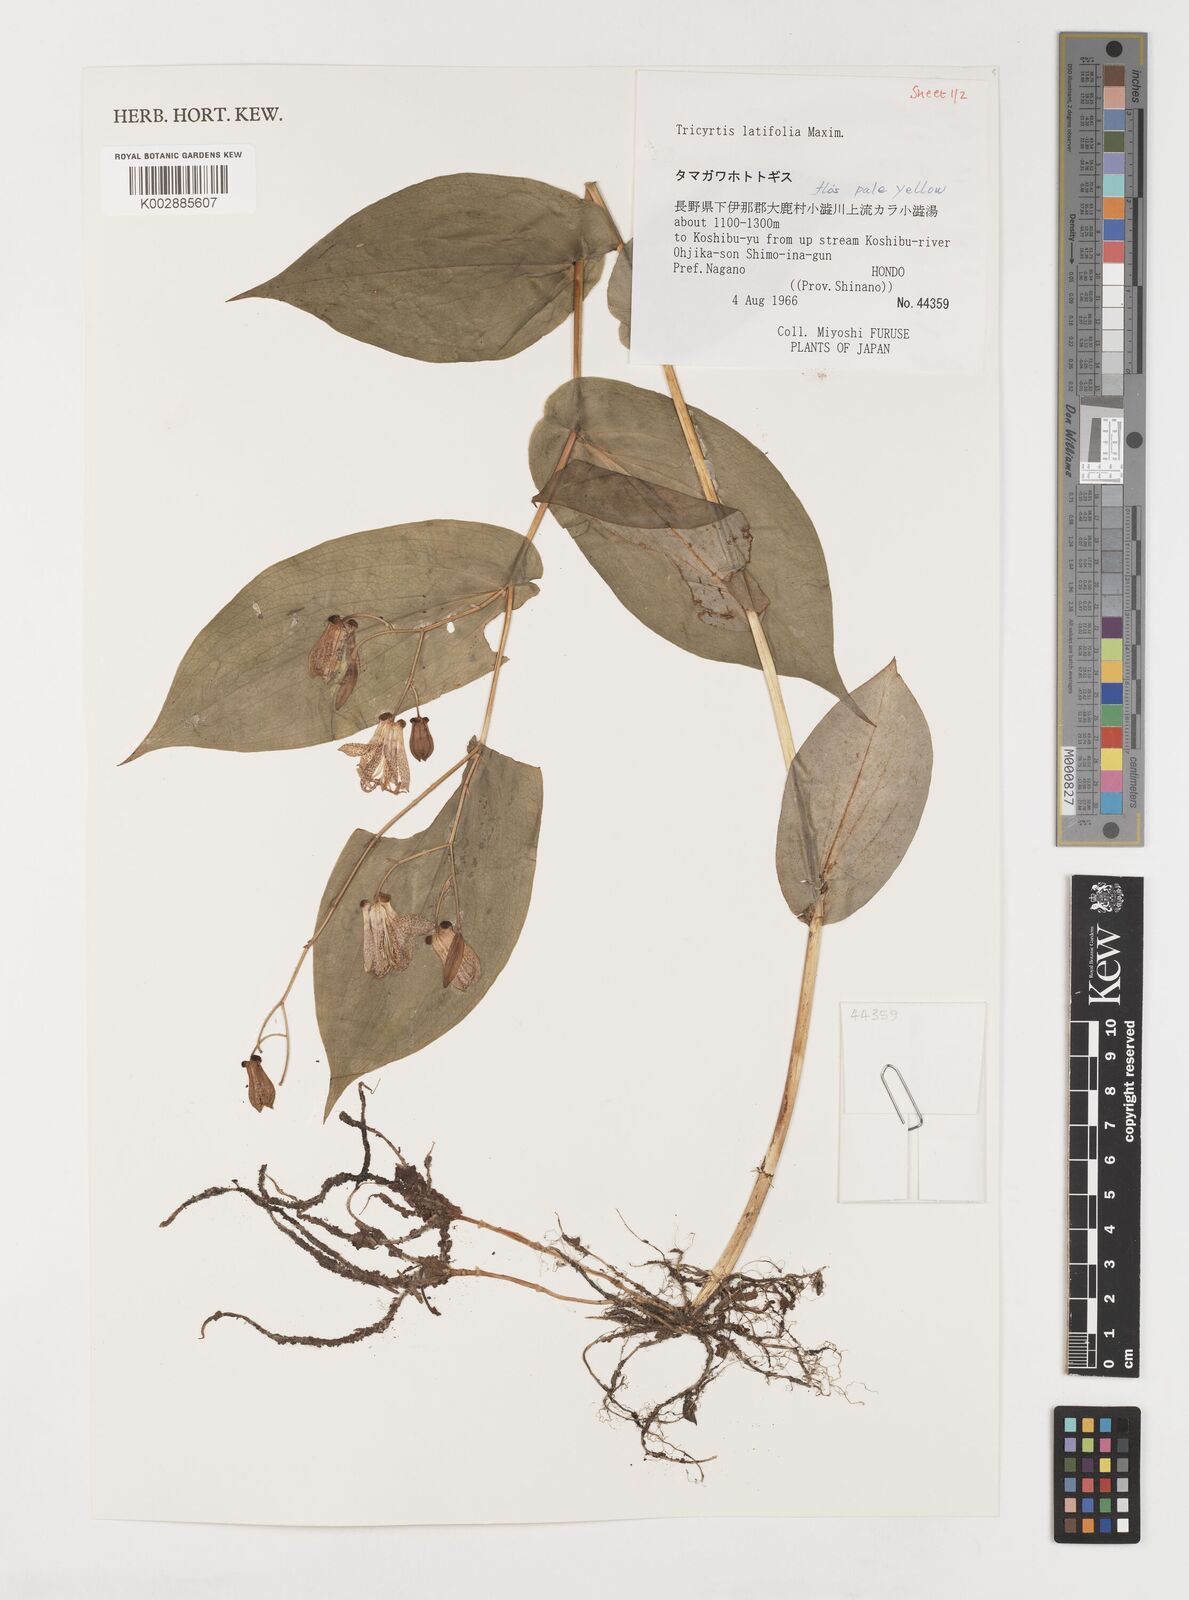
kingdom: Plantae
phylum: Tracheophyta
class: Liliopsida
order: Liliales
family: Liliaceae
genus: Tricyrtis
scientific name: Tricyrtis latifolia
